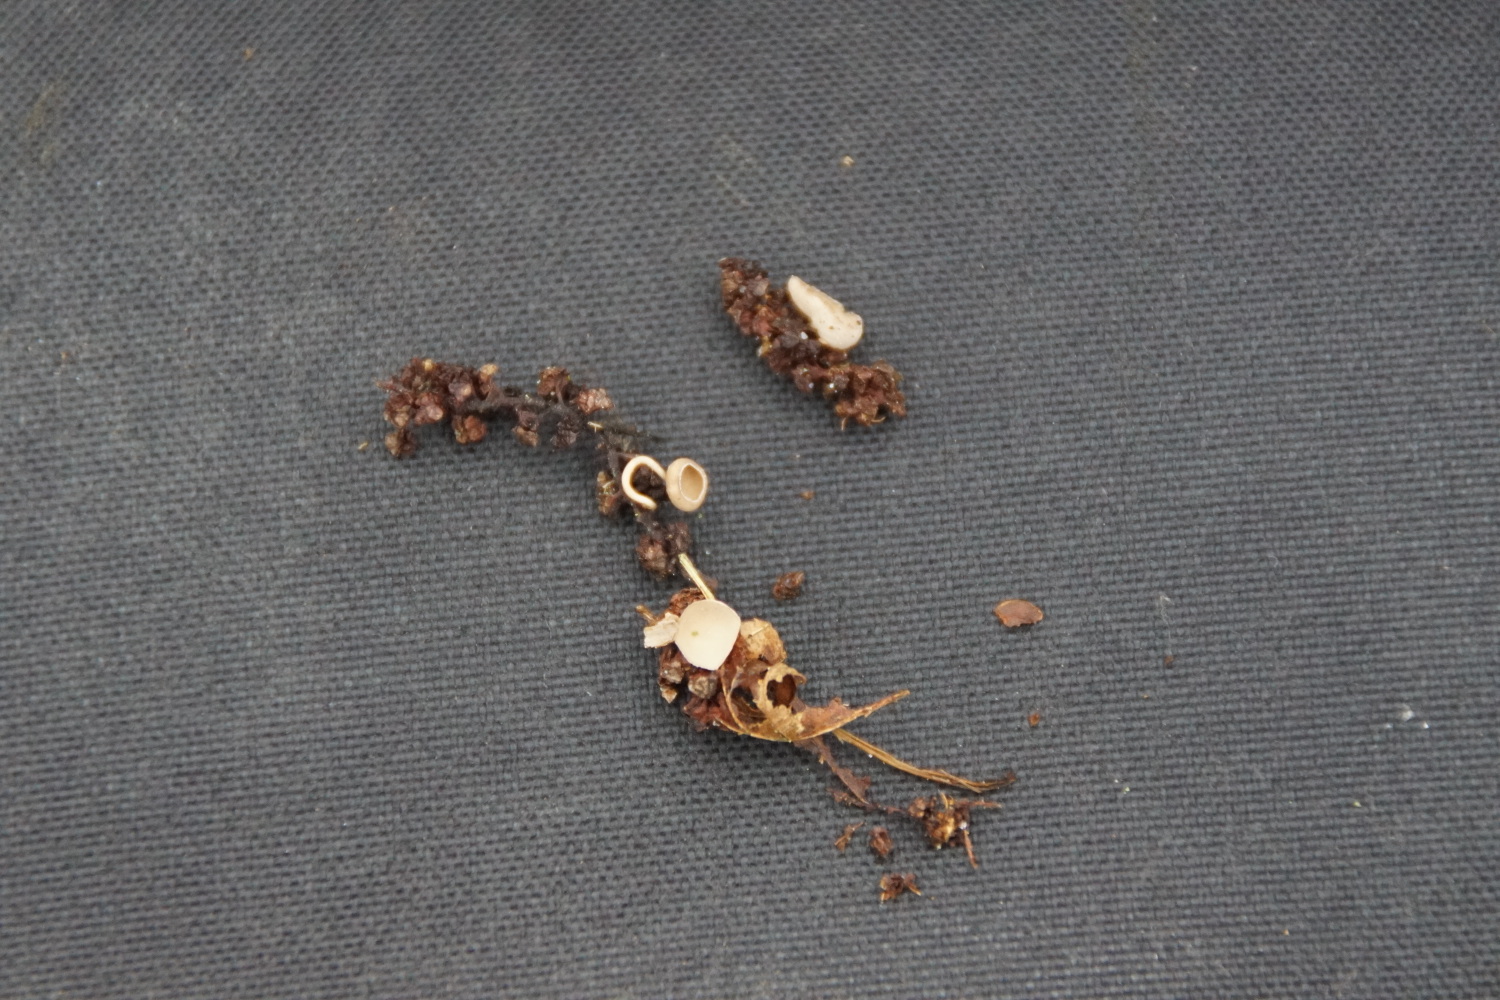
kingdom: Fungi
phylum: Ascomycota
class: Leotiomycetes
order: Helotiales
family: Sclerotiniaceae
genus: Ciboria
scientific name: Ciboria amentacea
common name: ellerakle-knoldskive
